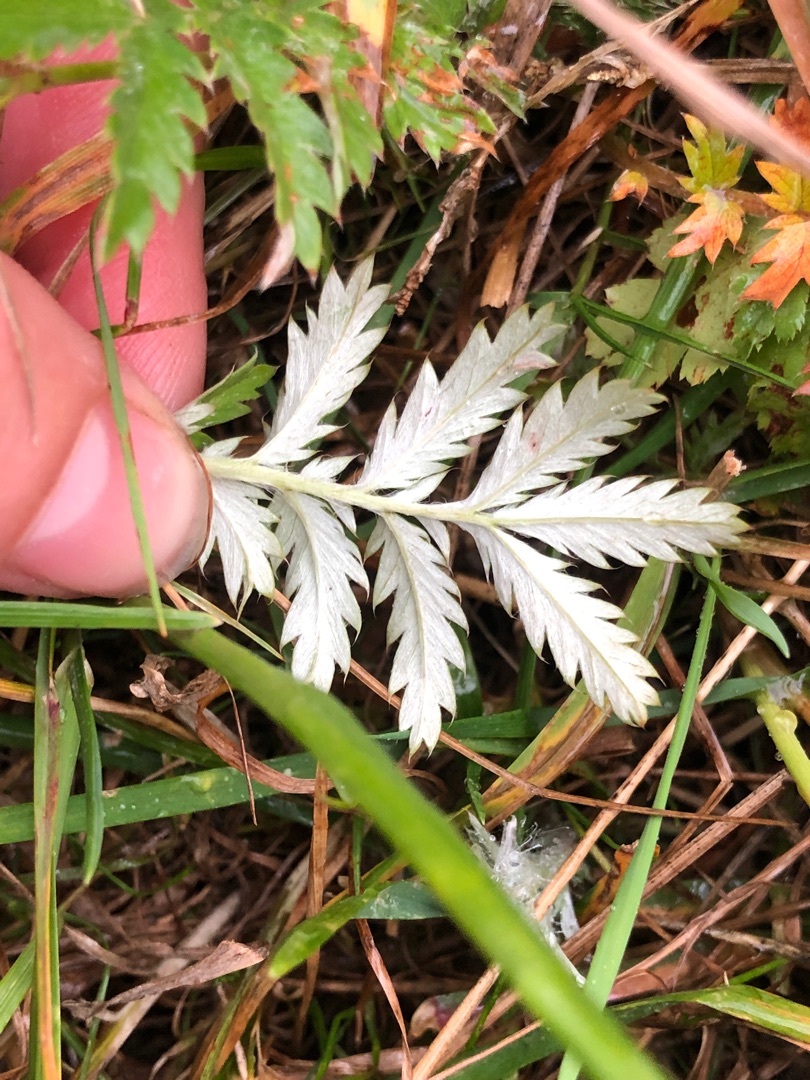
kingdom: Plantae
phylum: Tracheophyta
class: Magnoliopsida
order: Rosales
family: Rosaceae
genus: Argentina
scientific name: Argentina anserina
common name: Gåsepotentil
